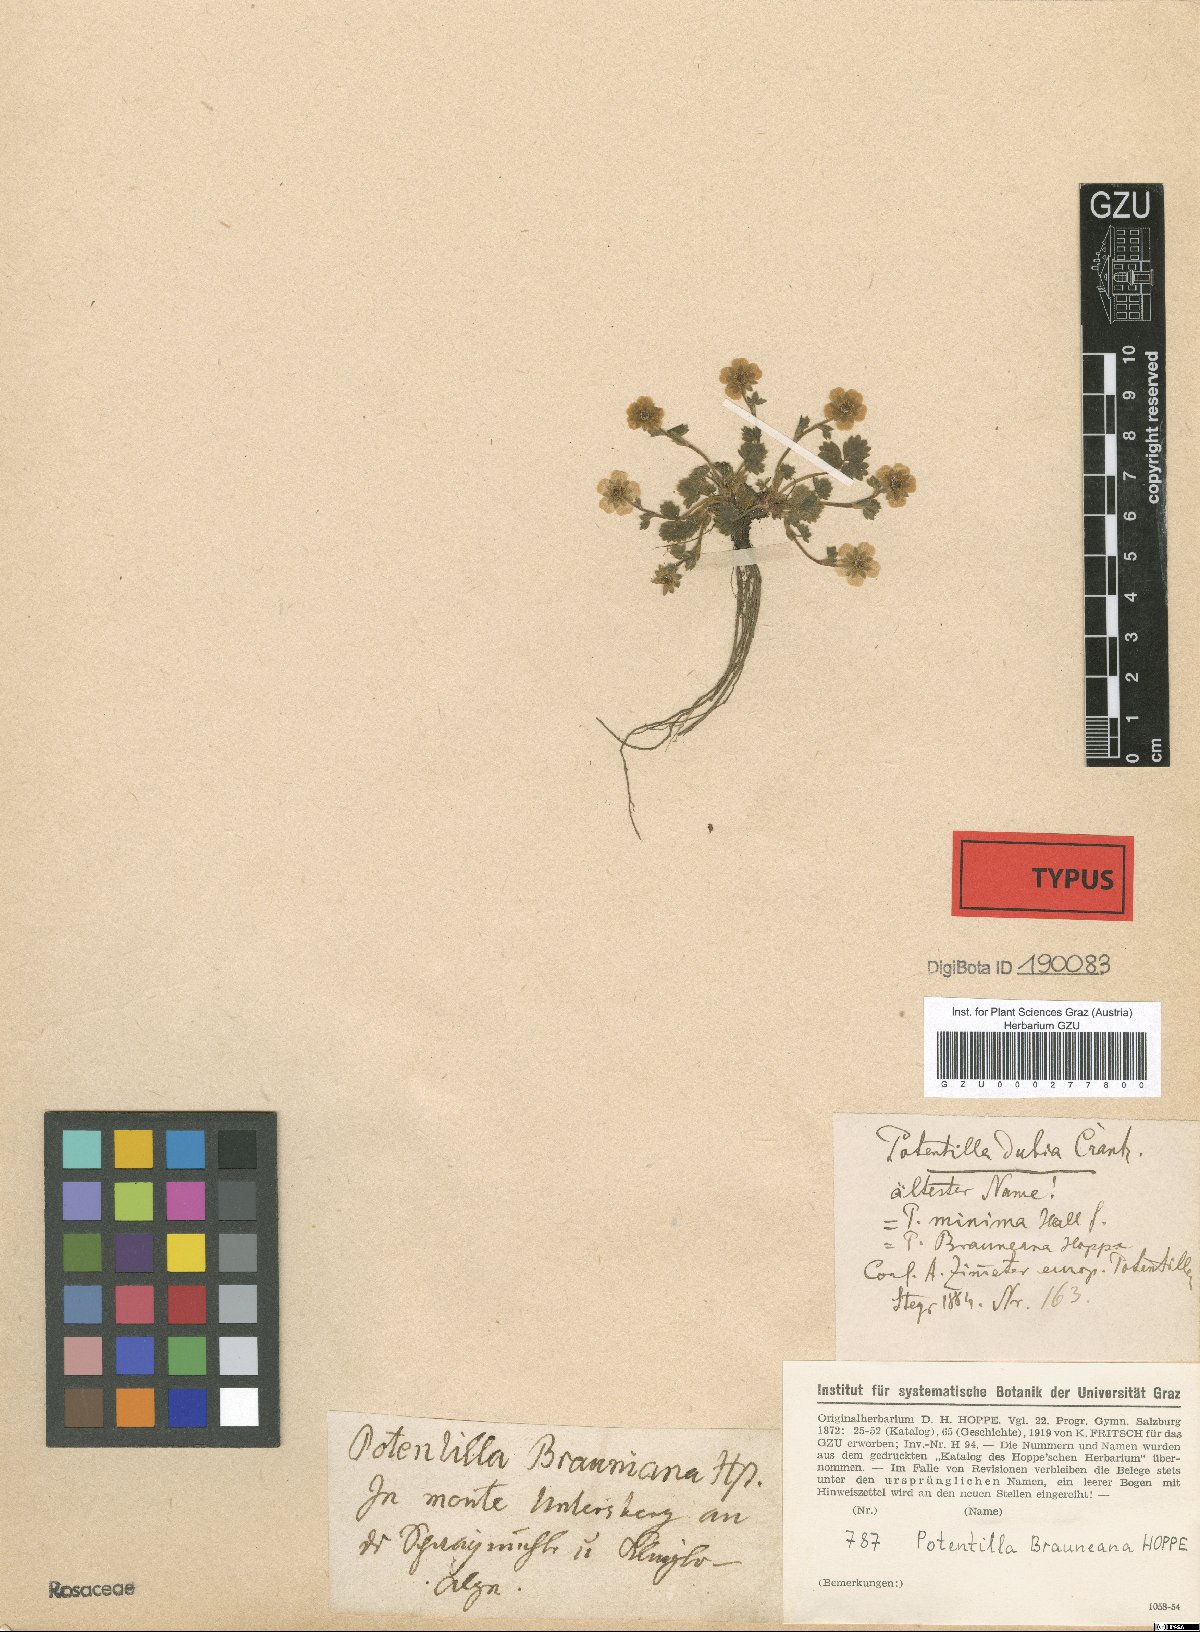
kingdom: Plantae
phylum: Tracheophyta
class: Magnoliopsida
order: Rosales
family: Rosaceae
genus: Potentilla
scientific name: Potentilla brauneana
